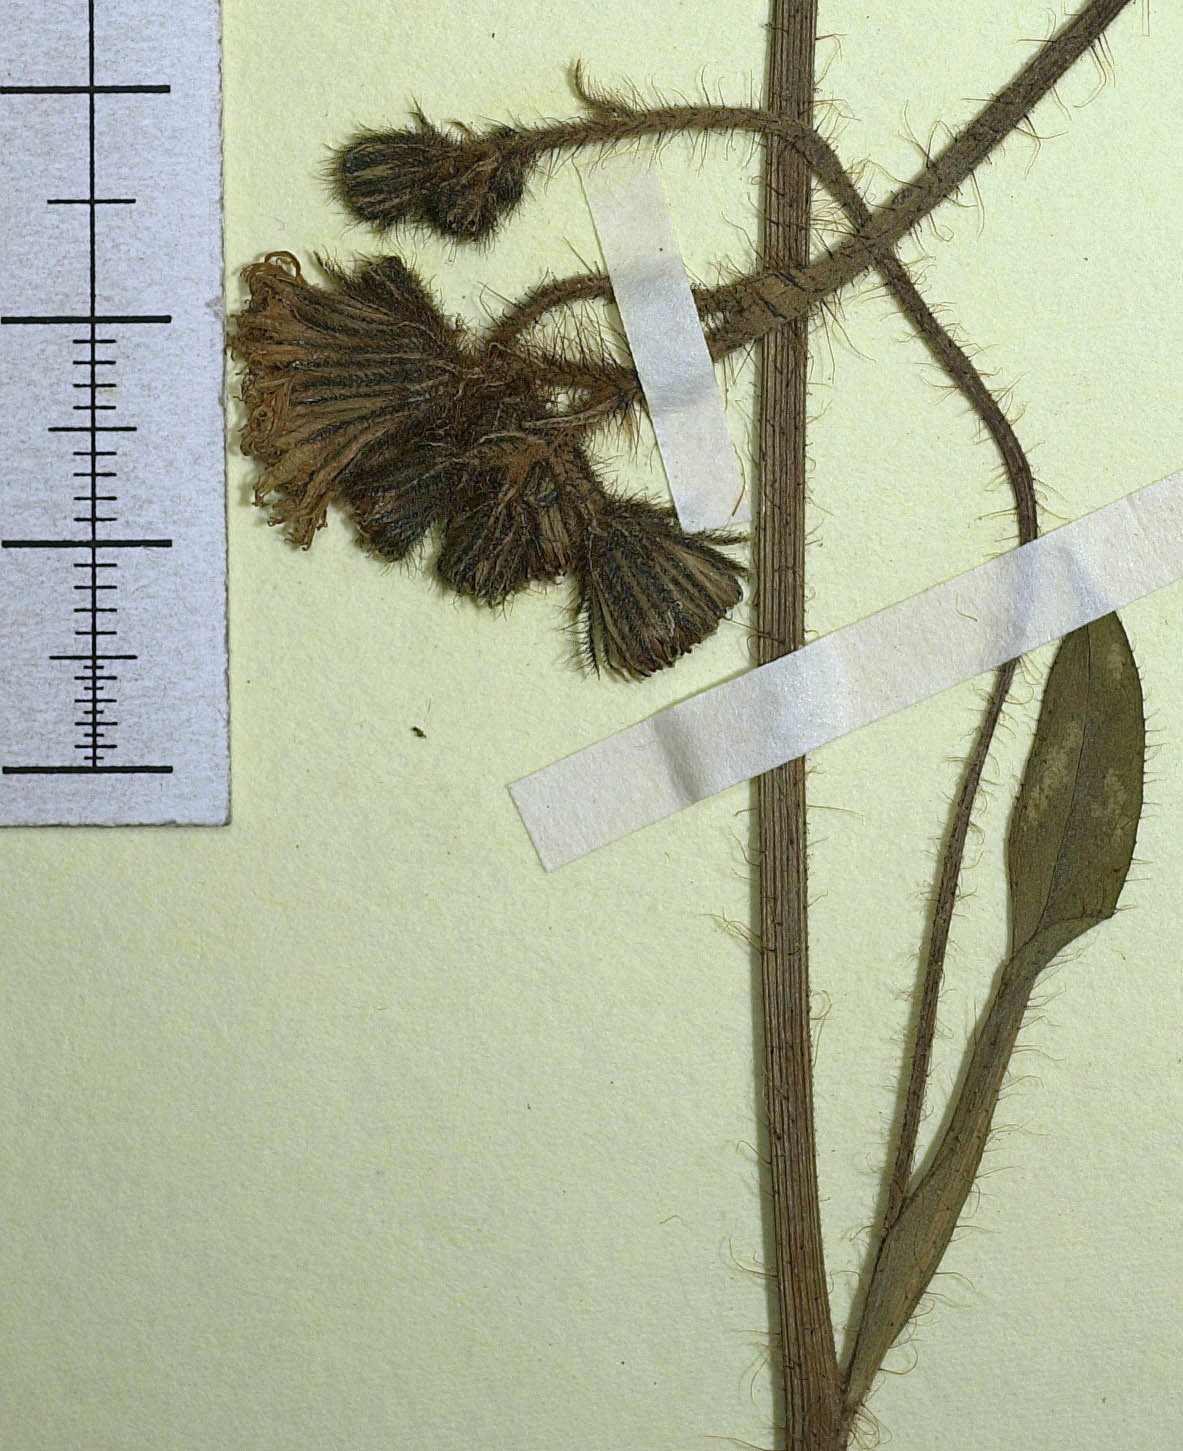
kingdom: Plantae
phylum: Tracheophyta
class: Magnoliopsida
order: Asterales
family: Asteraceae
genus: Pilosella
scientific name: Pilosella iserana
